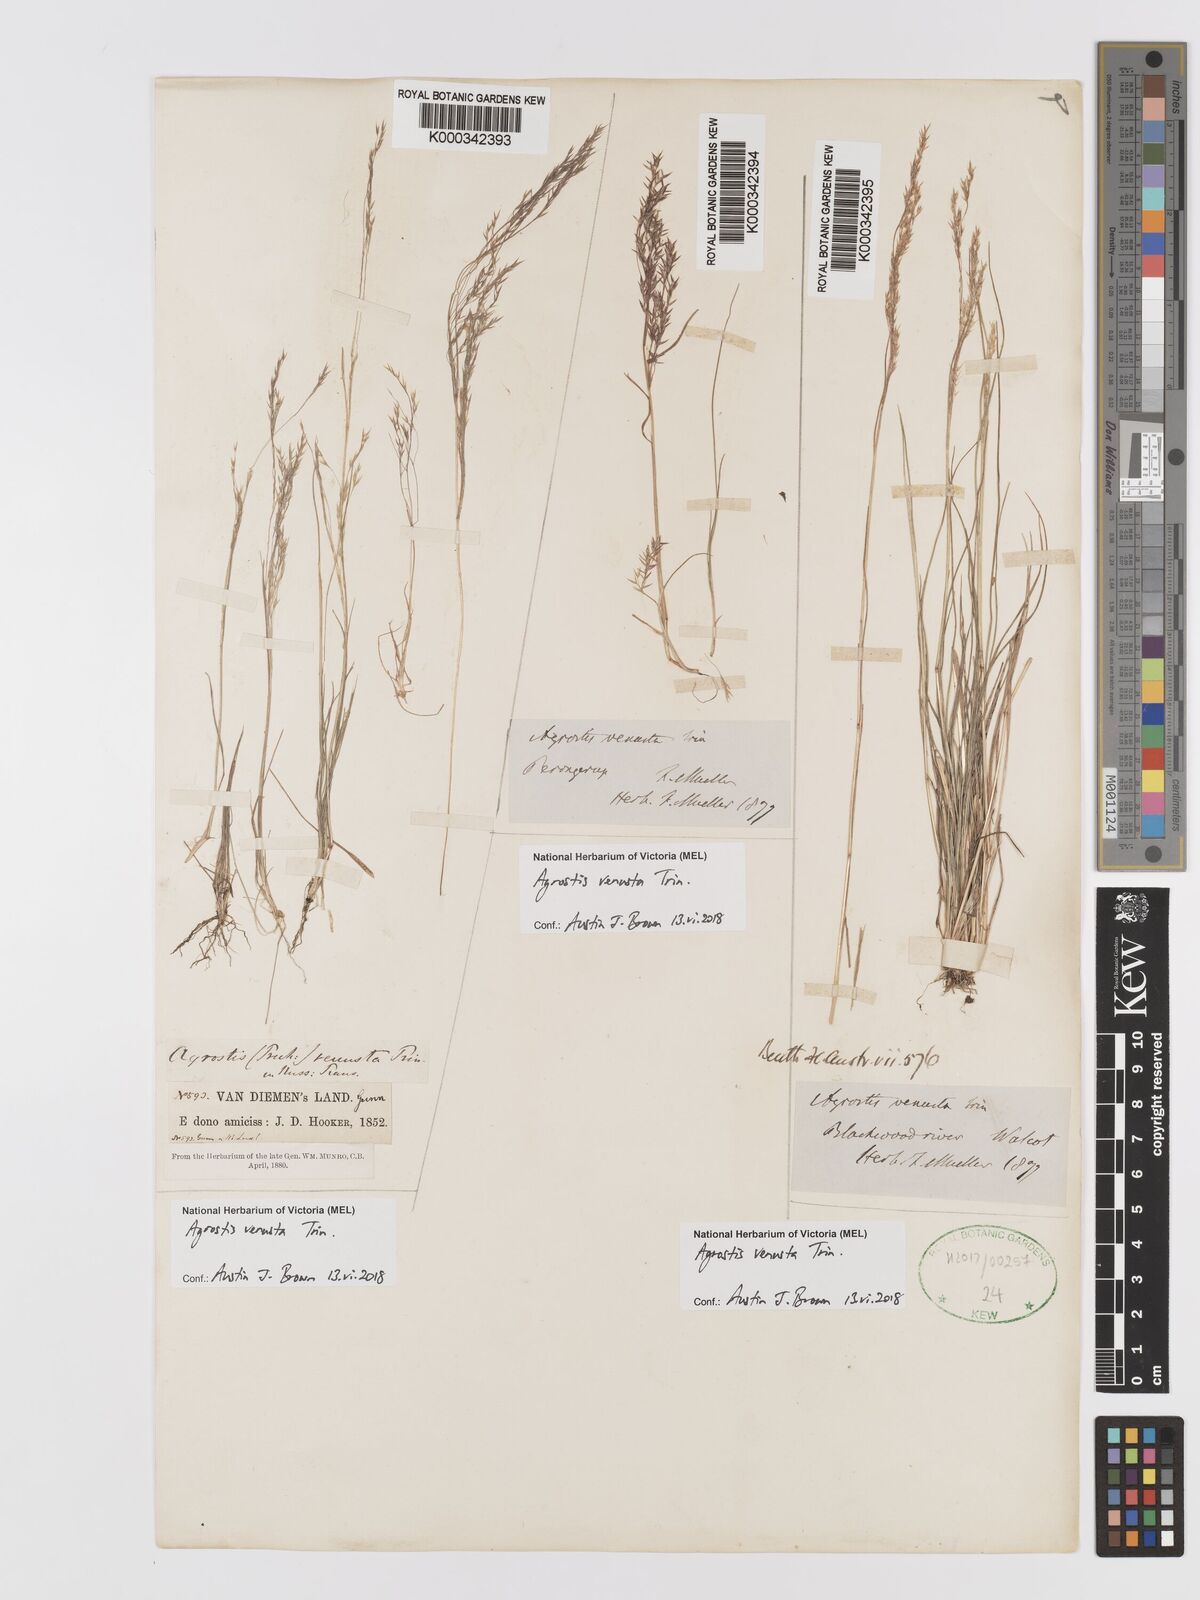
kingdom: Plantae
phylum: Tracheophyta
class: Liliopsida
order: Poales
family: Poaceae
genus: Agrostis
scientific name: Agrostis venusta
